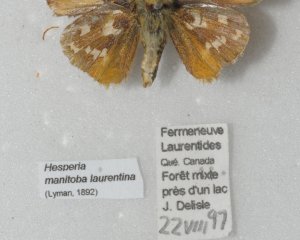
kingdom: Animalia
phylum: Arthropoda
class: Insecta
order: Lepidoptera
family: Hesperiidae
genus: Hesperia
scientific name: Hesperia comma
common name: Common Branded Skipper
